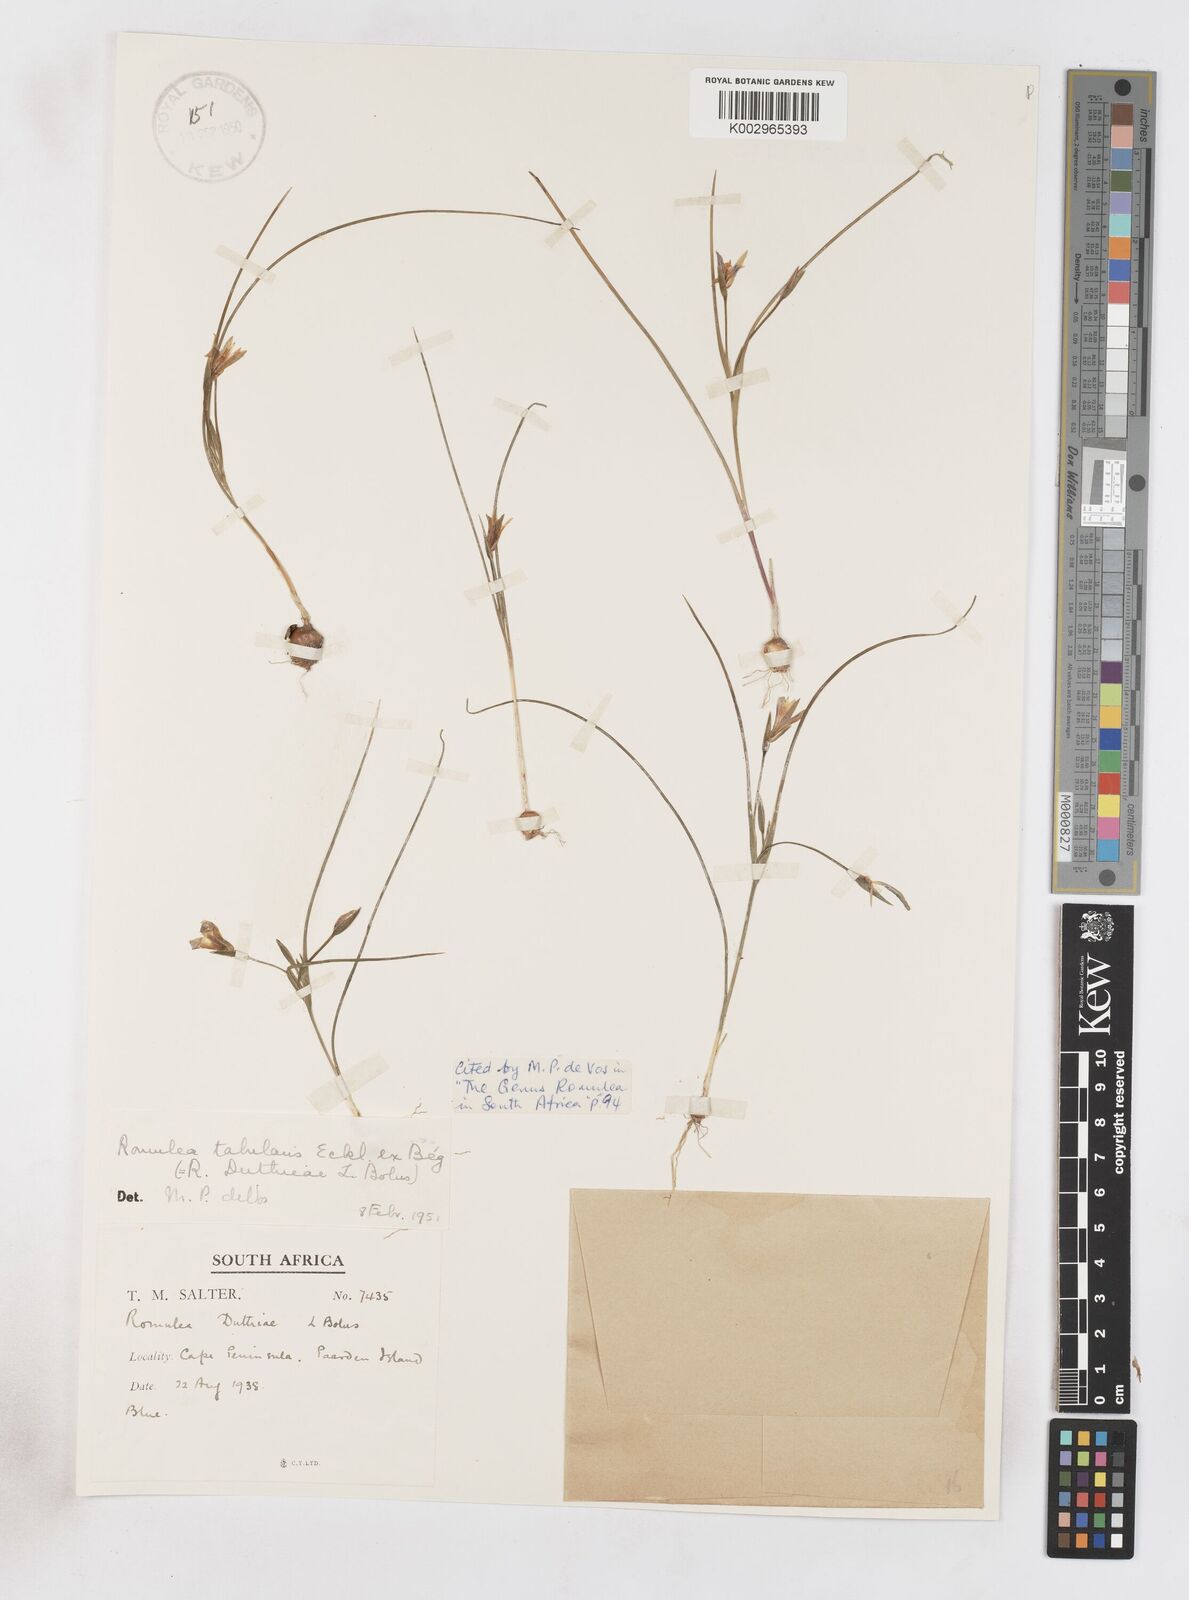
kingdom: Plantae
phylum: Tracheophyta
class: Liliopsida
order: Asparagales
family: Iridaceae
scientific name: Iridaceae
